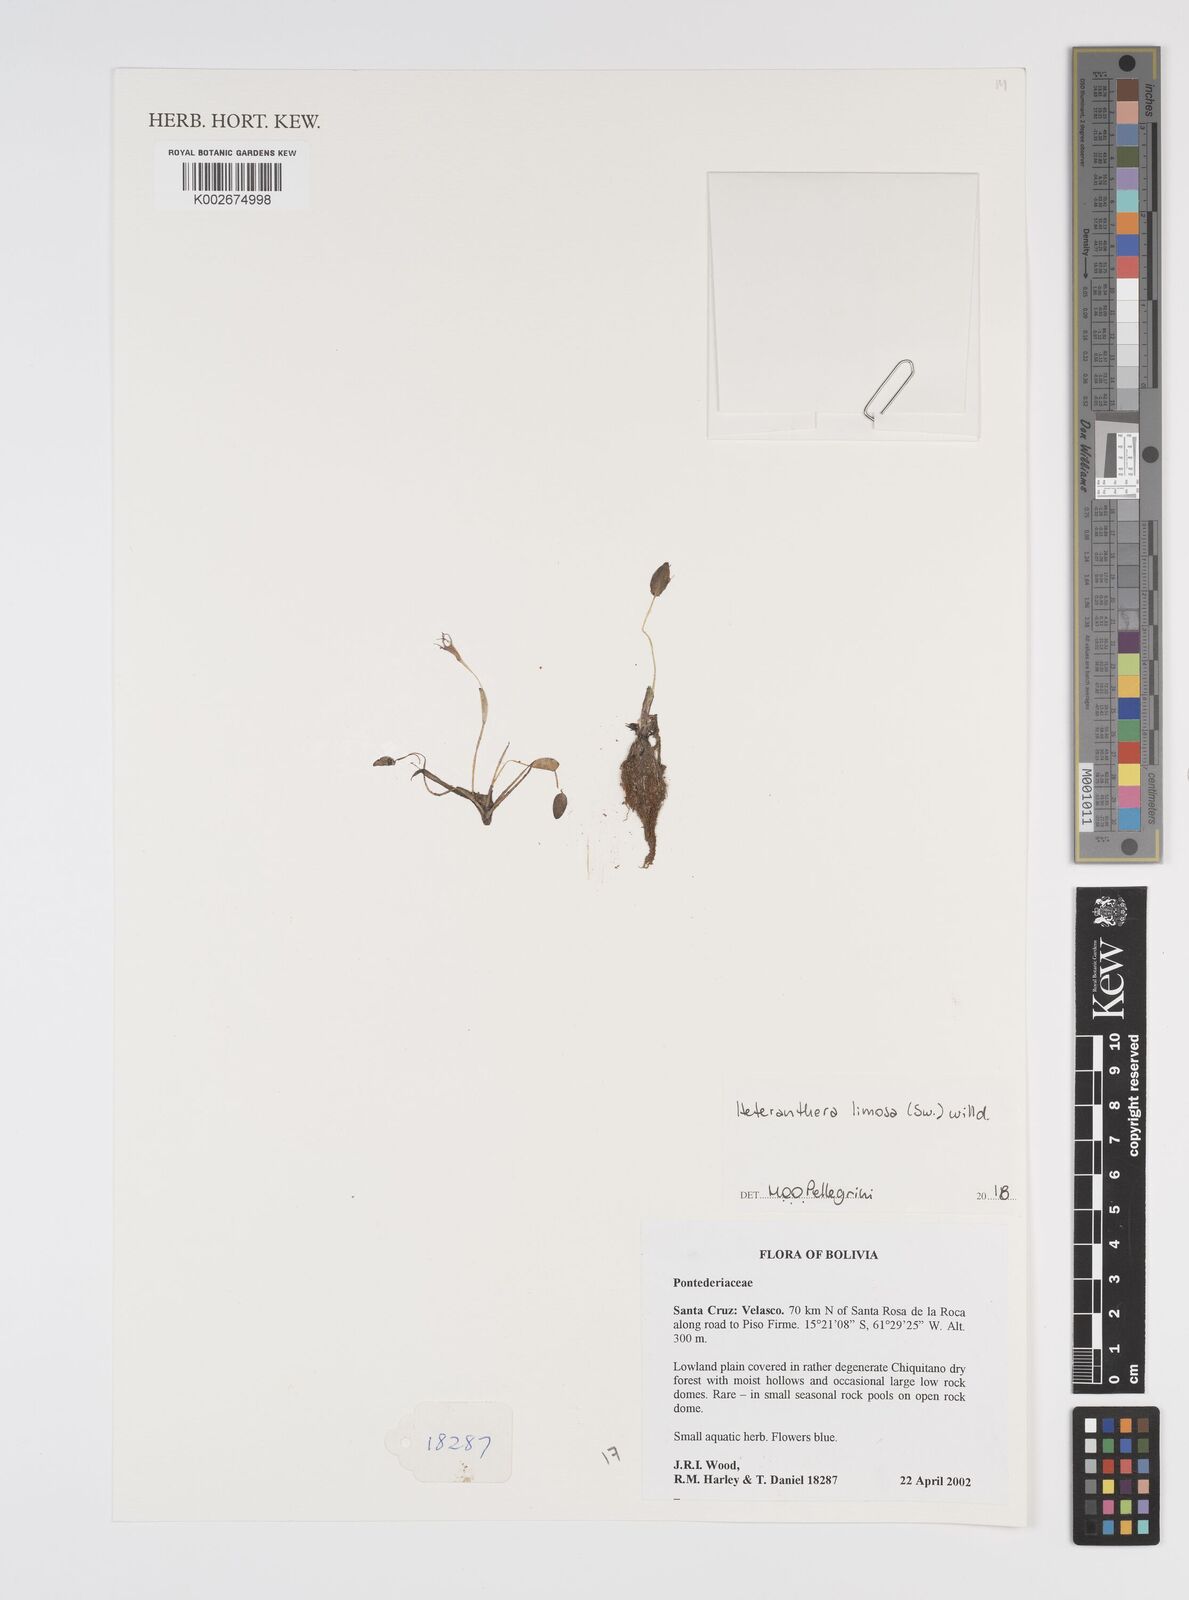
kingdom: Plantae
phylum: Tracheophyta
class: Liliopsida
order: Commelinales
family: Pontederiaceae
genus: Heteranthera
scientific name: Heteranthera limosa
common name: Blue mud-plantain
